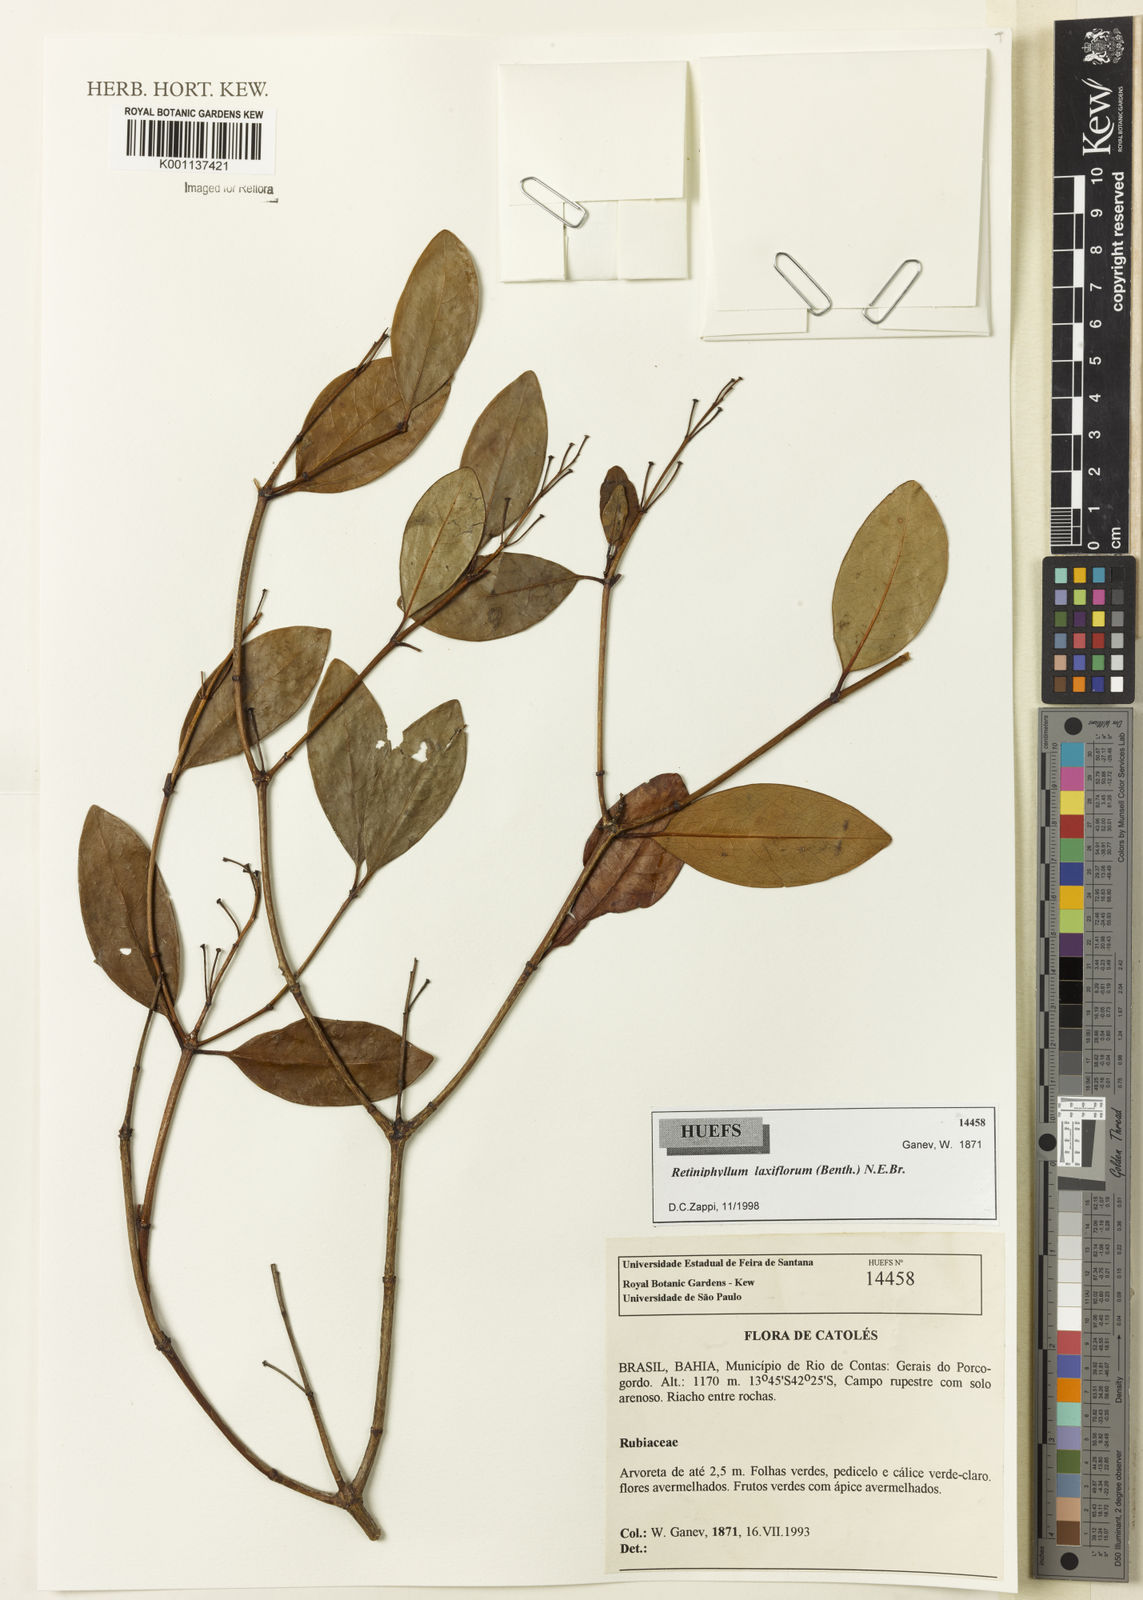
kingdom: Plantae
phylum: Tracheophyta
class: Magnoliopsida
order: Gentianales
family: Rubiaceae
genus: Retiniphyllum
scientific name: Retiniphyllum laxiflorum
